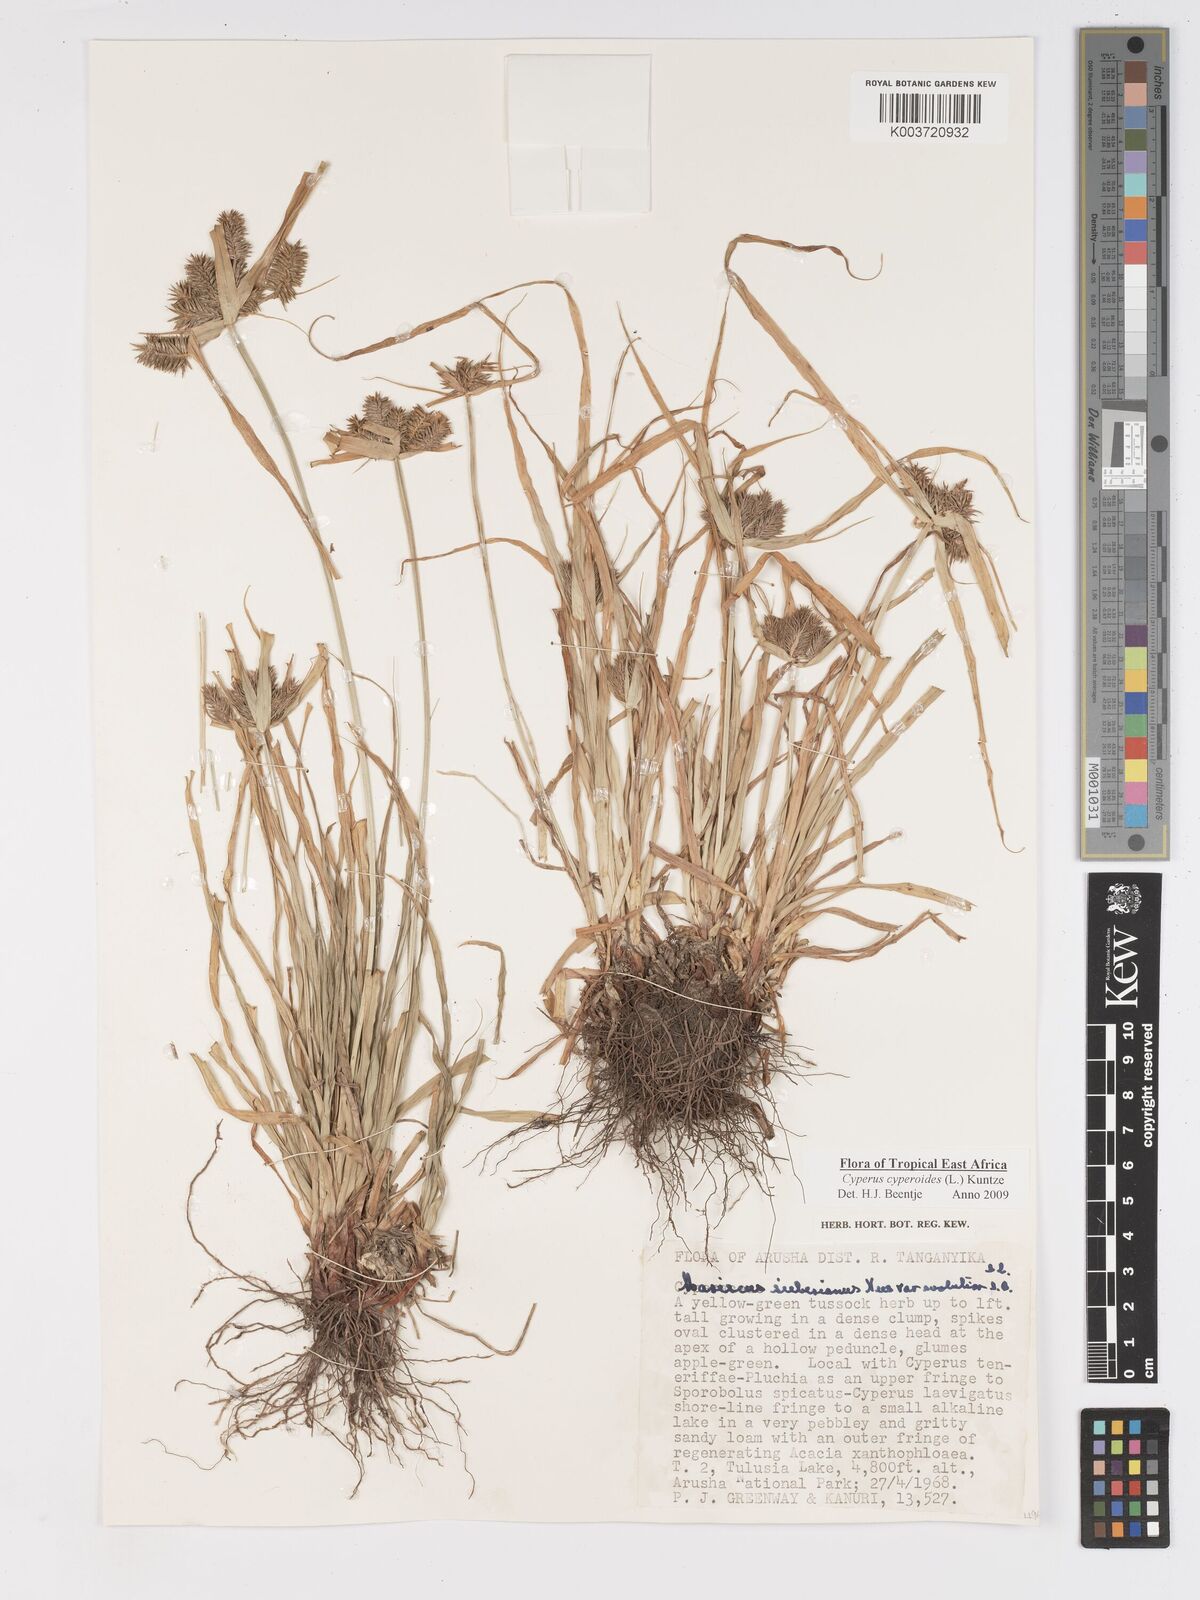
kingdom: Plantae
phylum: Tracheophyta
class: Liliopsida
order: Poales
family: Cyperaceae
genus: Cyperus
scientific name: Cyperus macrocarpus
